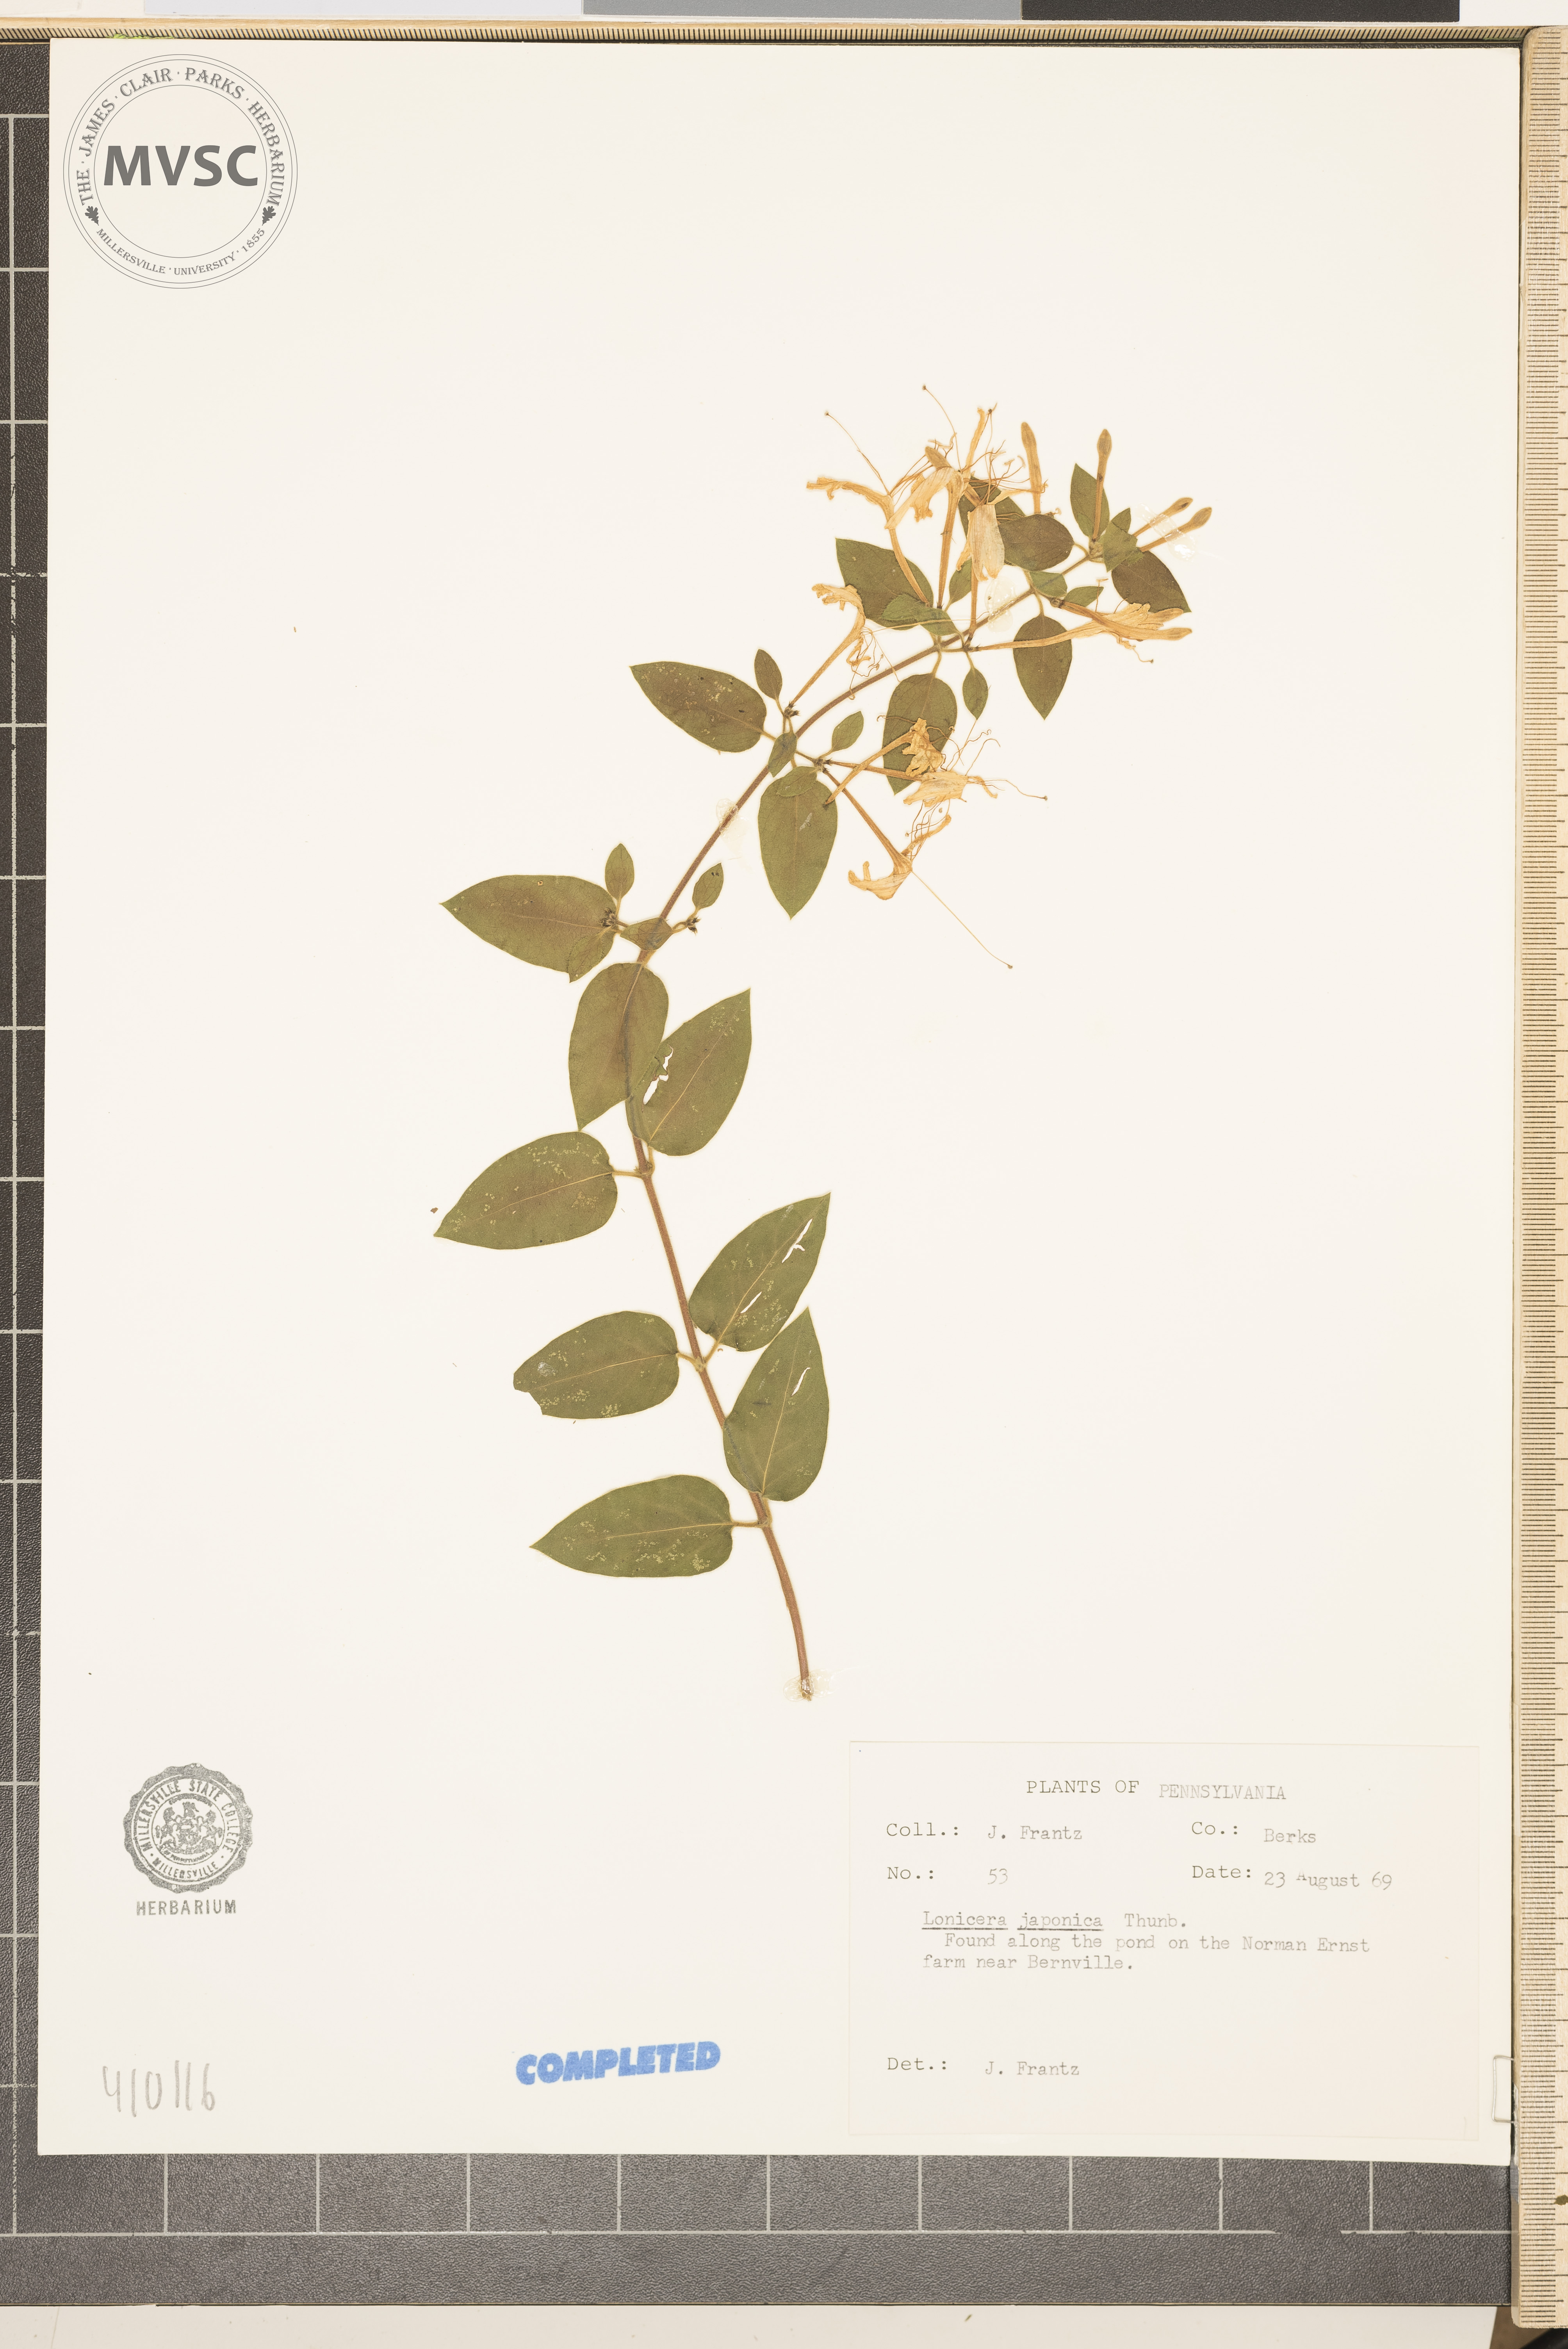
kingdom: Plantae
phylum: Tracheophyta
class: Magnoliopsida
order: Dipsacales
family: Caprifoliaceae
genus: Lonicera
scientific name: Lonicera japonica
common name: Japanese honeysuckle
